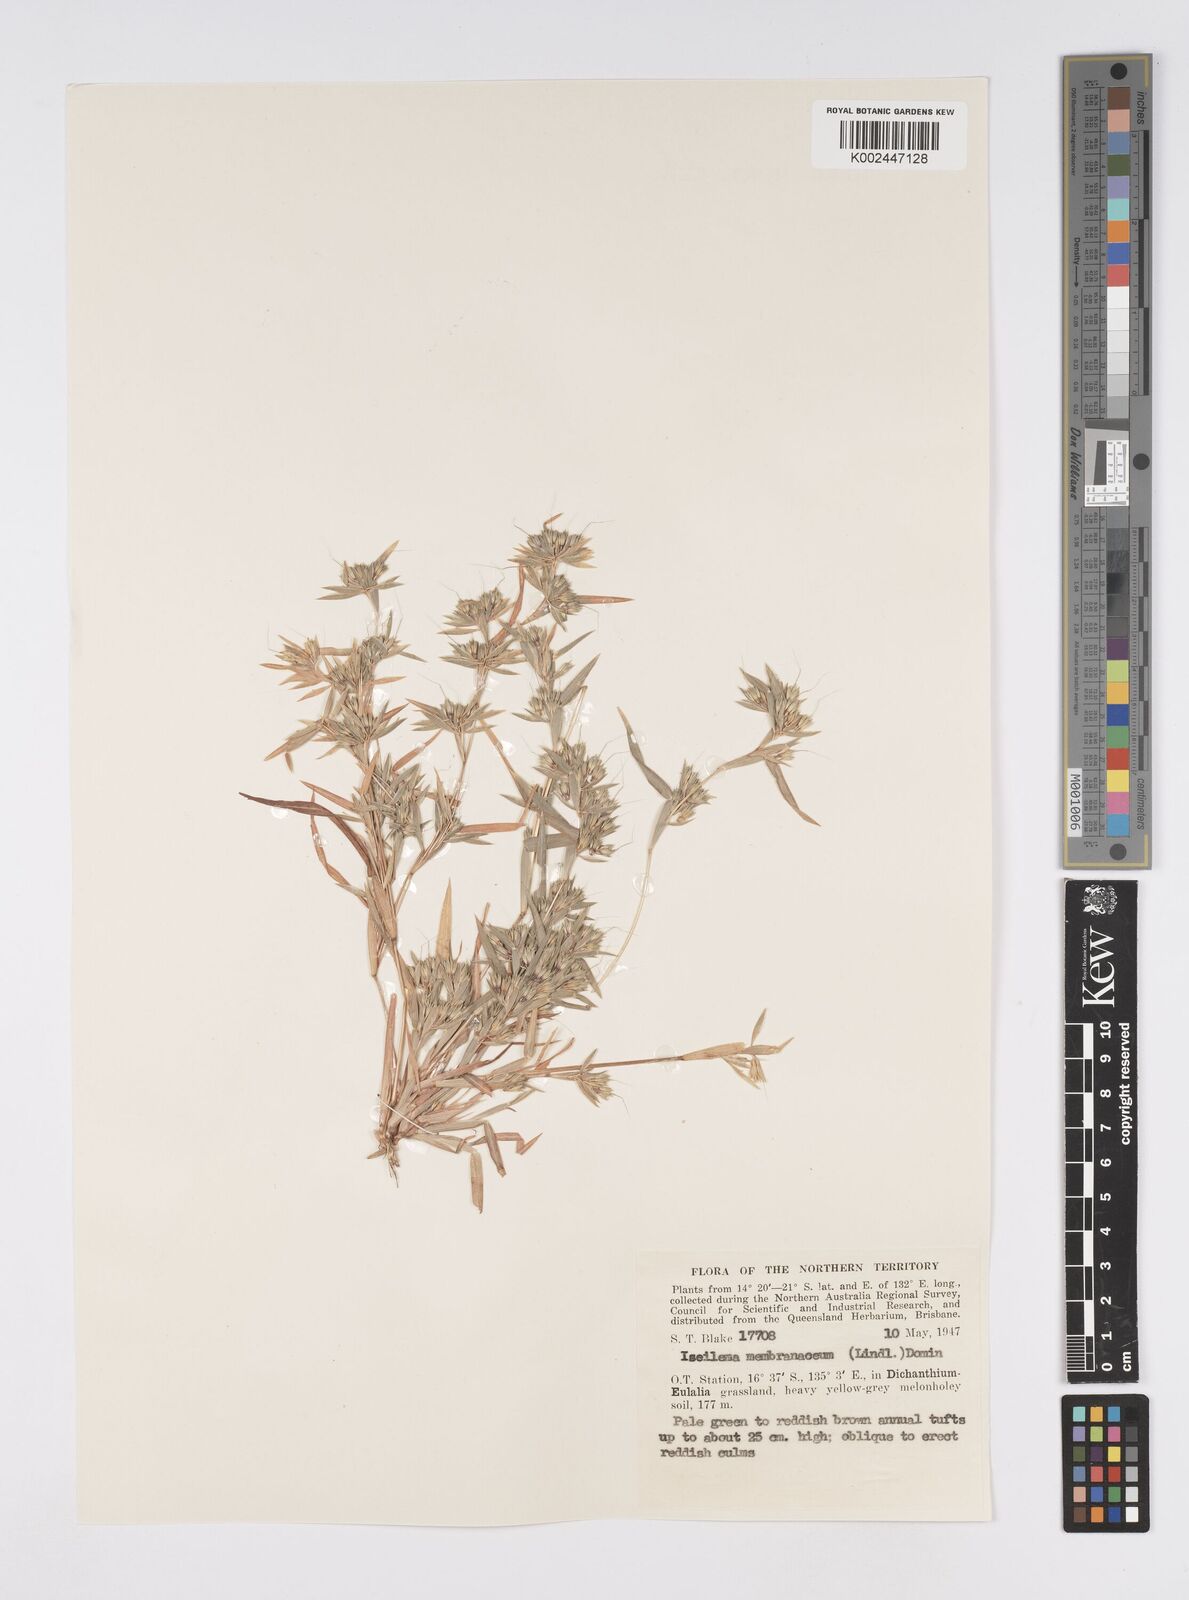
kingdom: Plantae
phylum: Tracheophyta
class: Liliopsida
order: Poales
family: Poaceae
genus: Iseilema
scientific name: Iseilema membranaceum
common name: Small flinders grass
